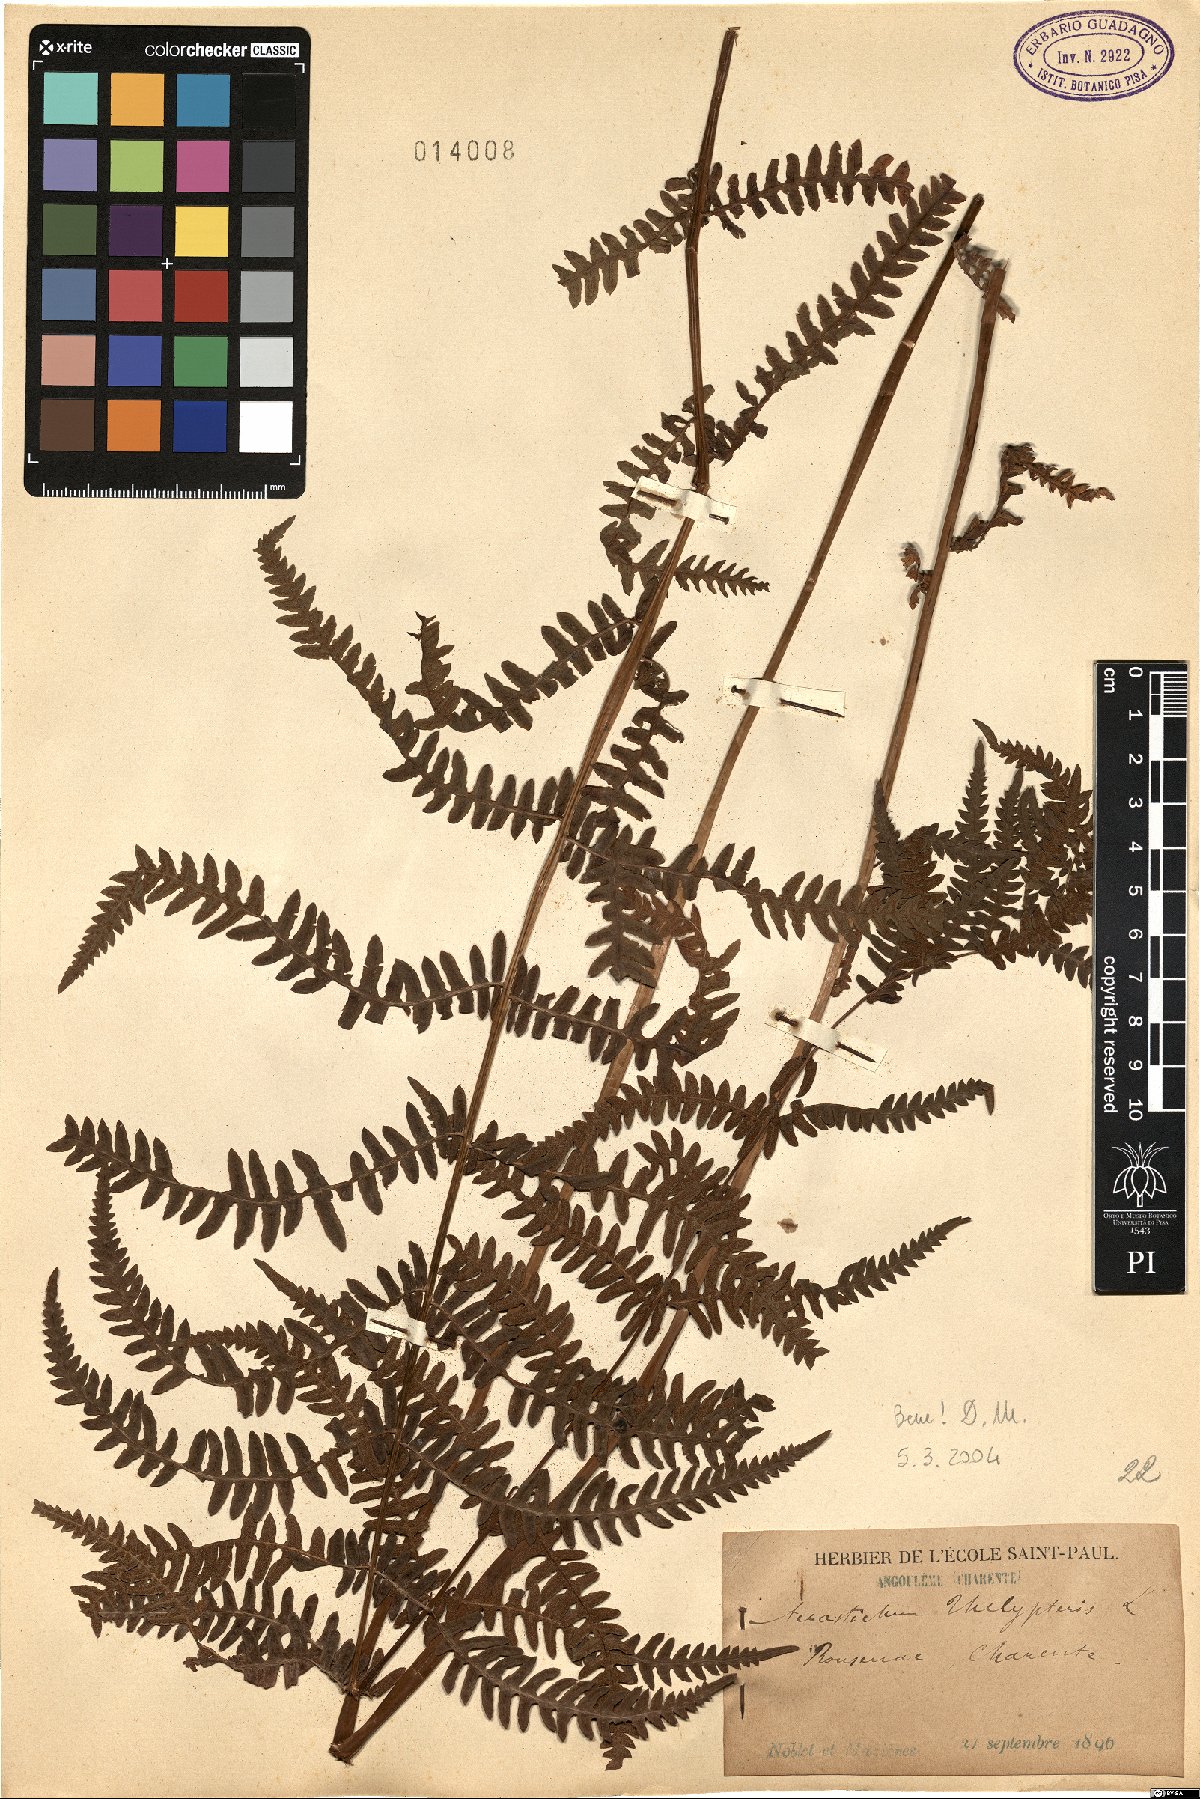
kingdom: Plantae
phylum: Tracheophyta
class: Polypodiopsida
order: Polypodiales
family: Thelypteridaceae
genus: Thelypteris
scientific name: Thelypteris palustris
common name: Marsh fern
